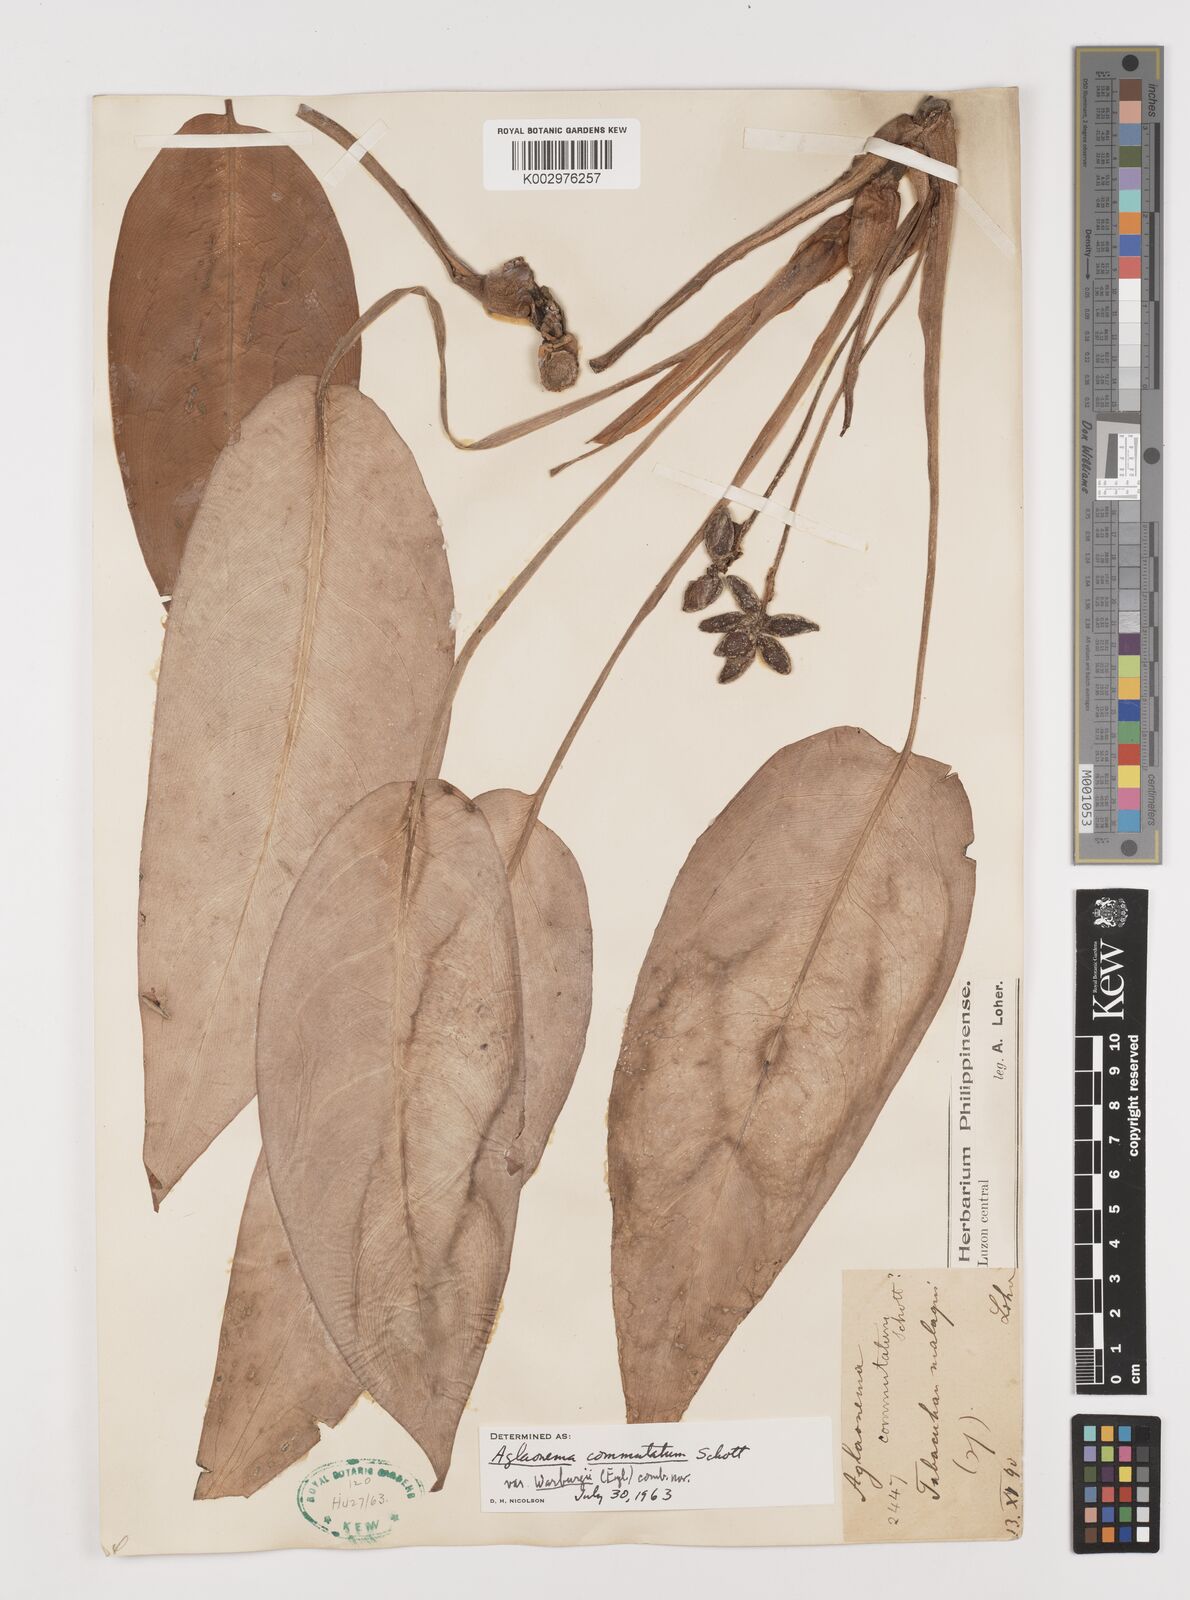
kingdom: Plantae
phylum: Tracheophyta
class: Liliopsida
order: Alismatales
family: Araceae
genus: Aglaonema
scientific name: Aglaonema commutatum
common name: Philippine evergreen
